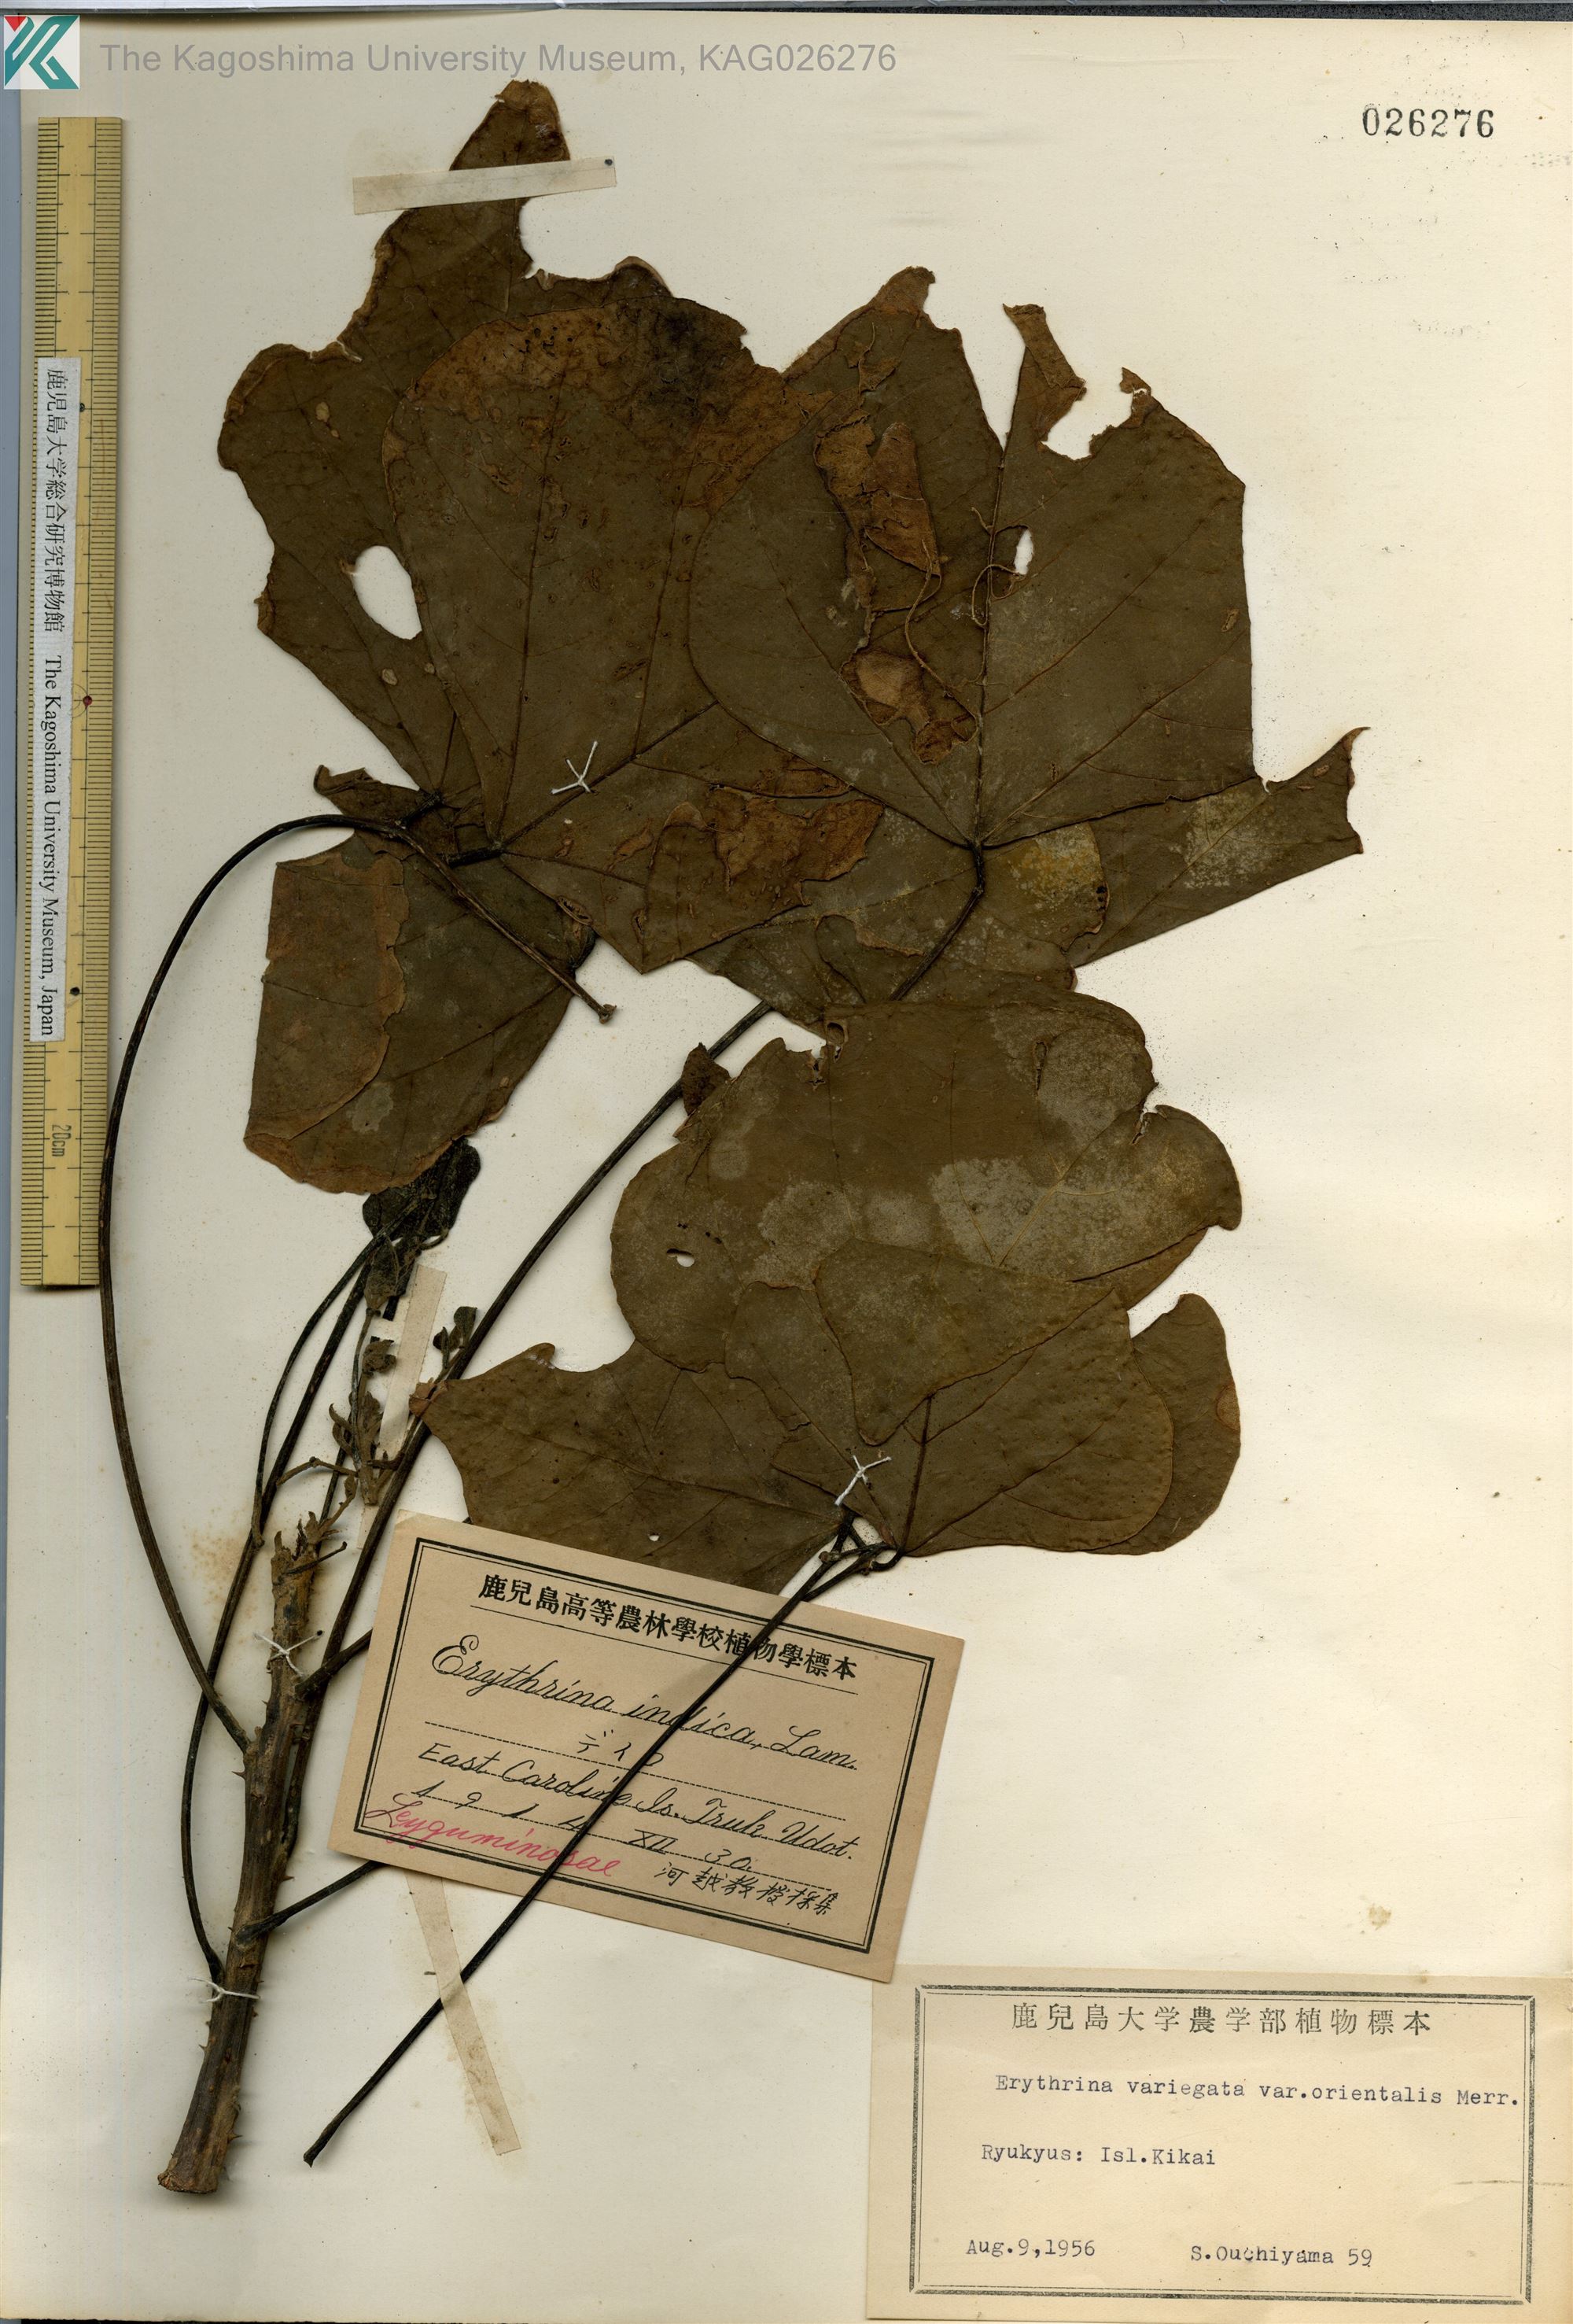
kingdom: Plantae
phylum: Tracheophyta
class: Magnoliopsida
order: Fabales
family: Fabaceae
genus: Erythrina
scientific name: Erythrina variegata
